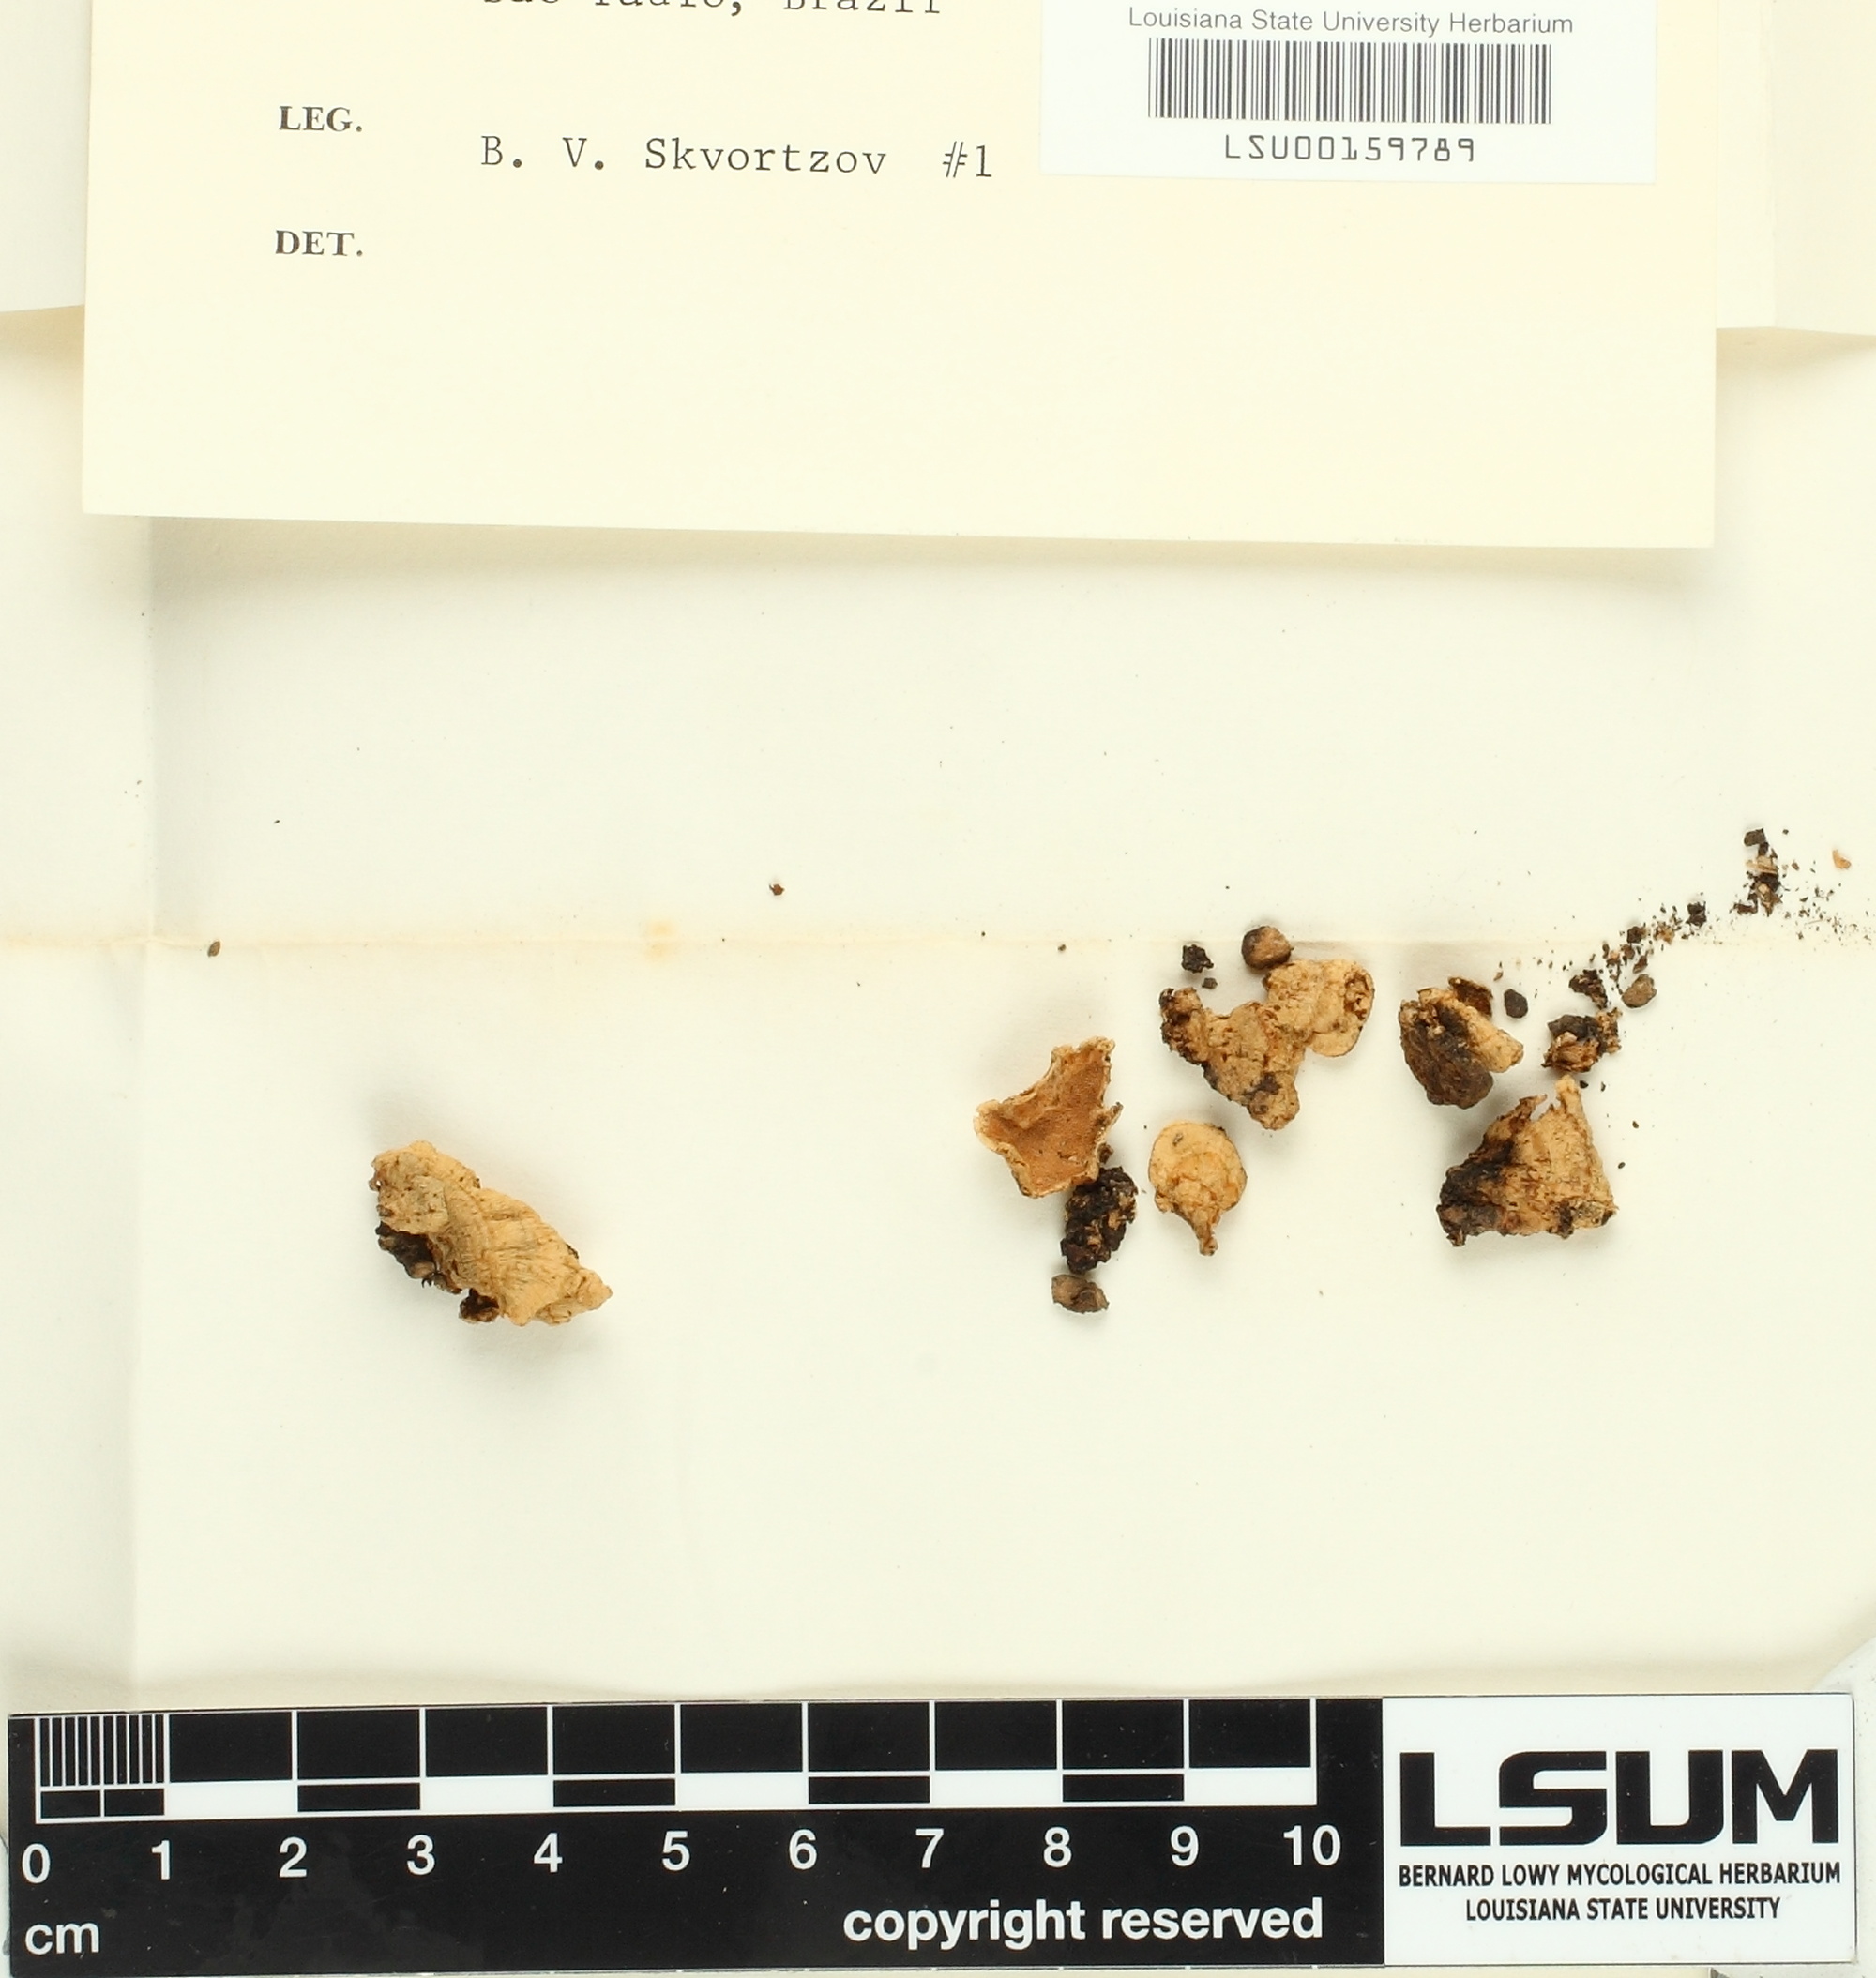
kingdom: Fungi
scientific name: Fungi
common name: Fungi
